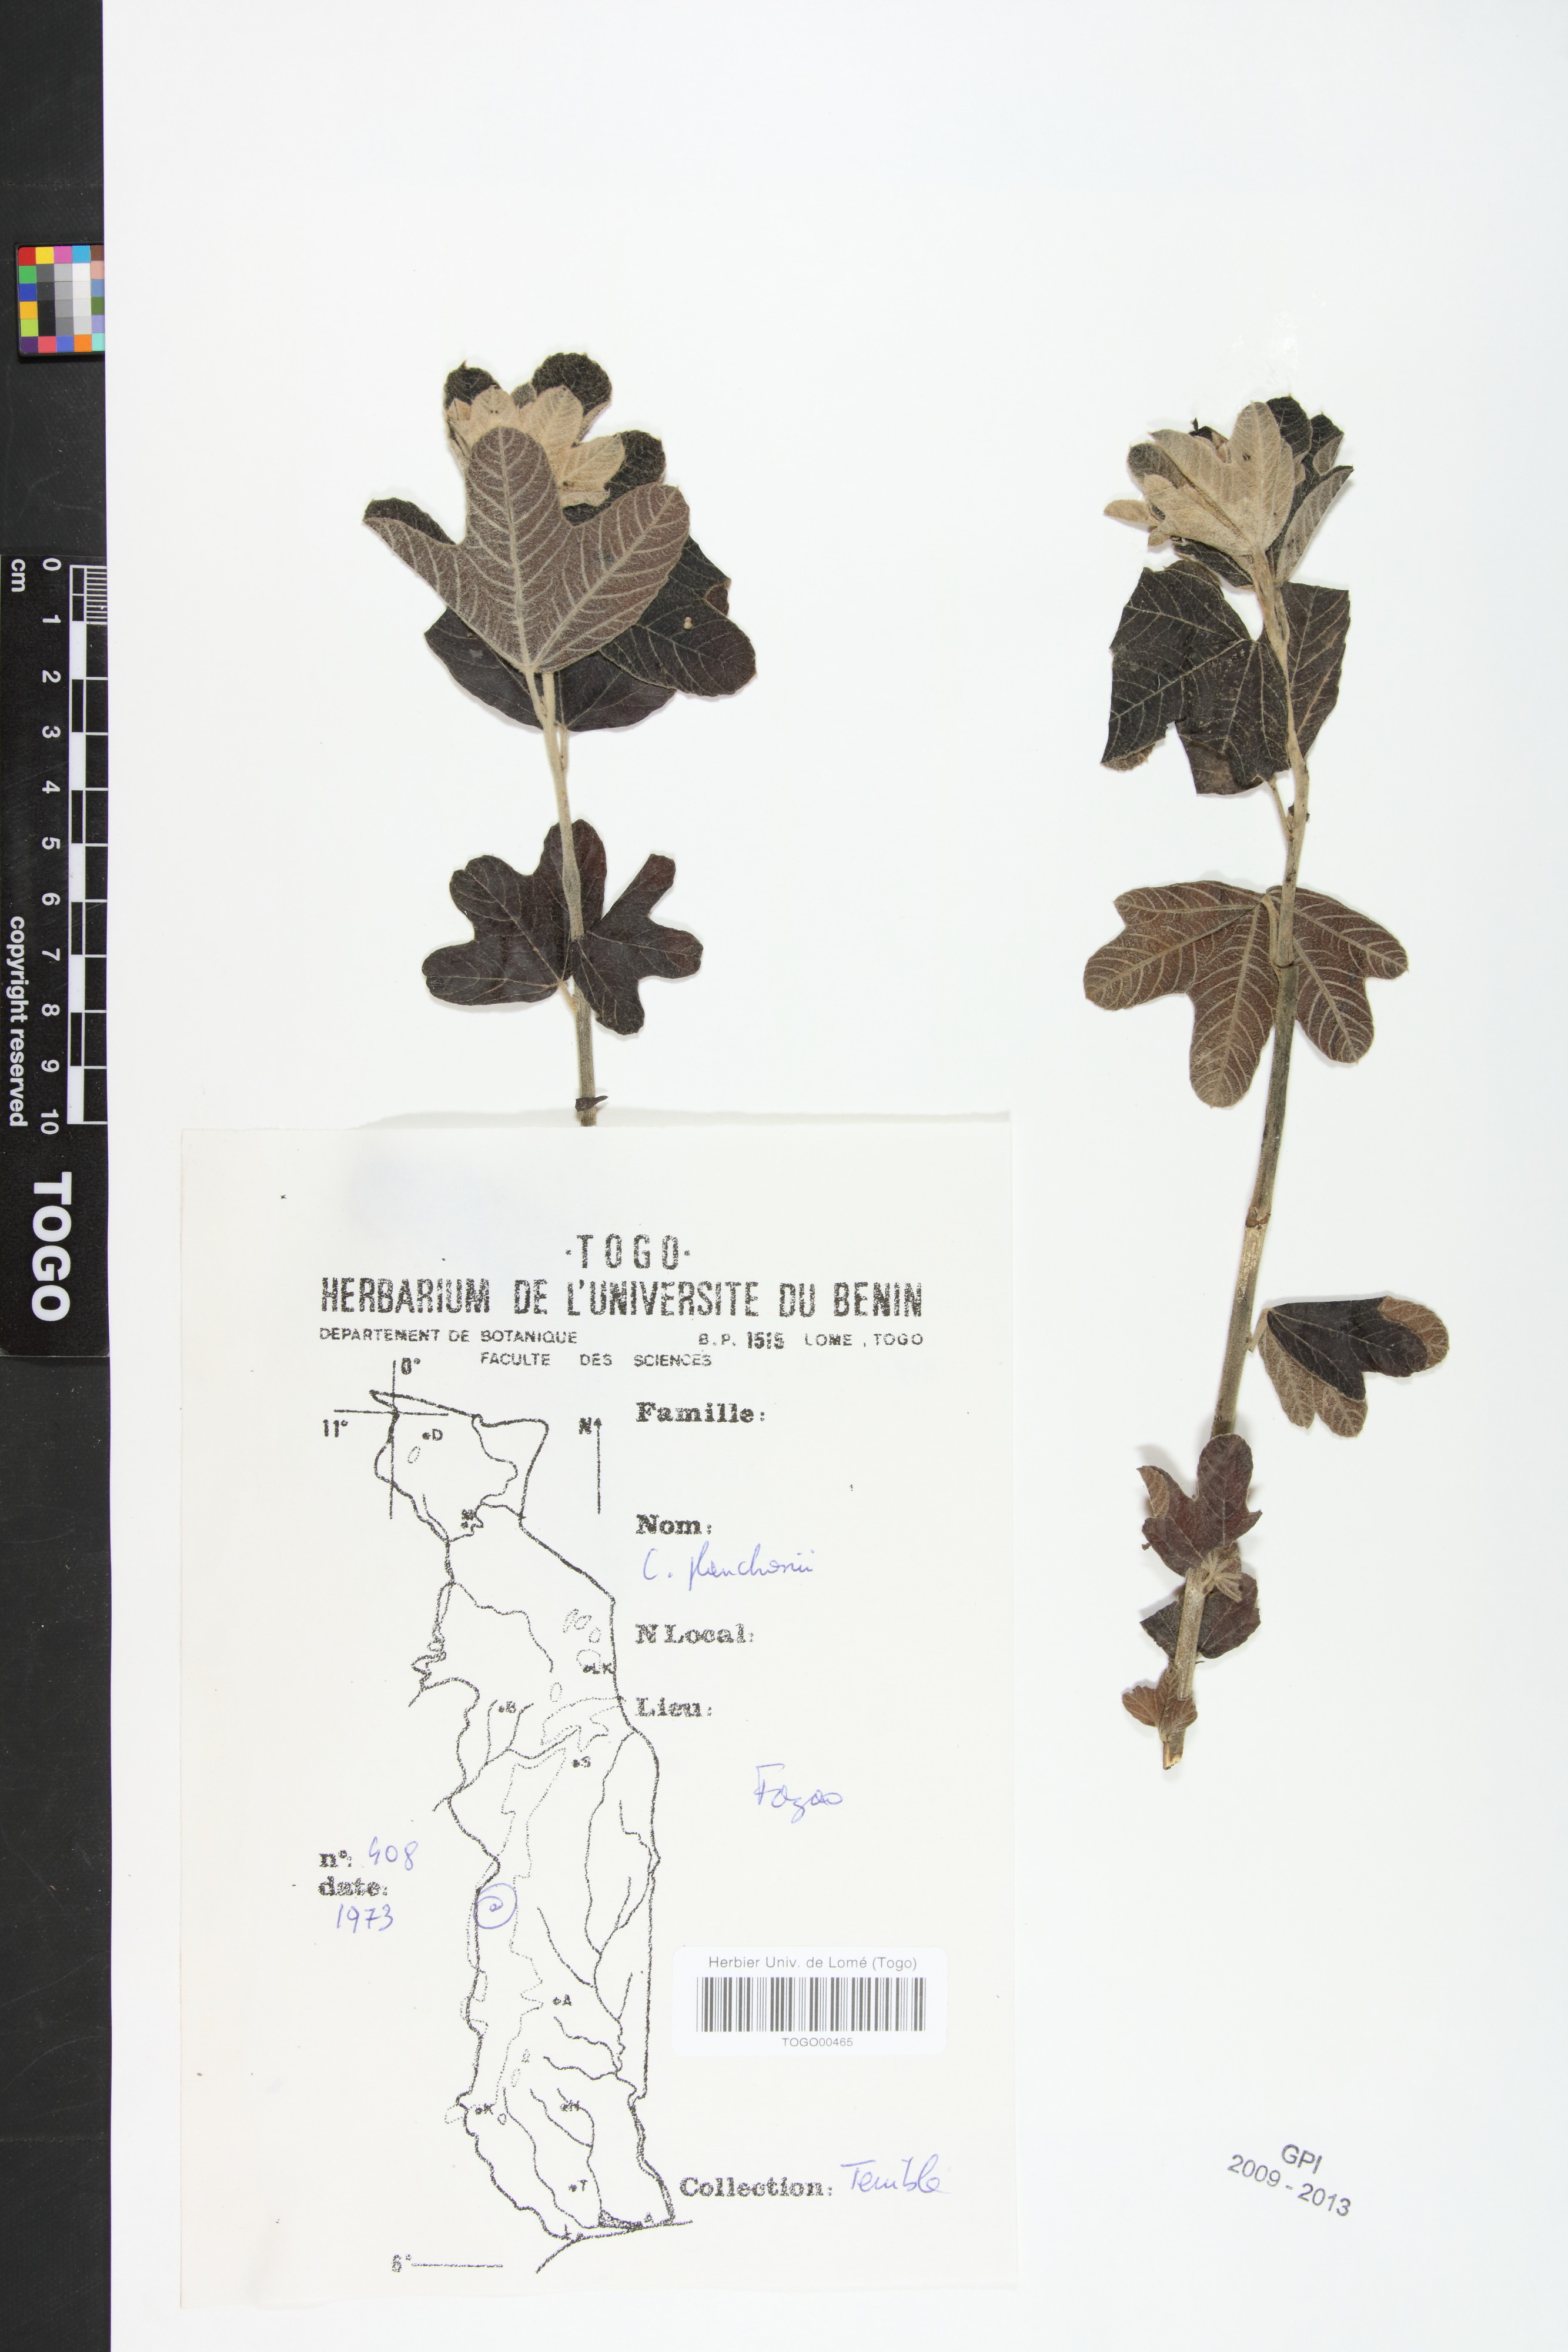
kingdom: Plantae
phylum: Tracheophyta
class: Magnoliopsida
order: Malvales
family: Cochlospermaceae
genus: Cochlospermum
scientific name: Cochlospermum planchonii
